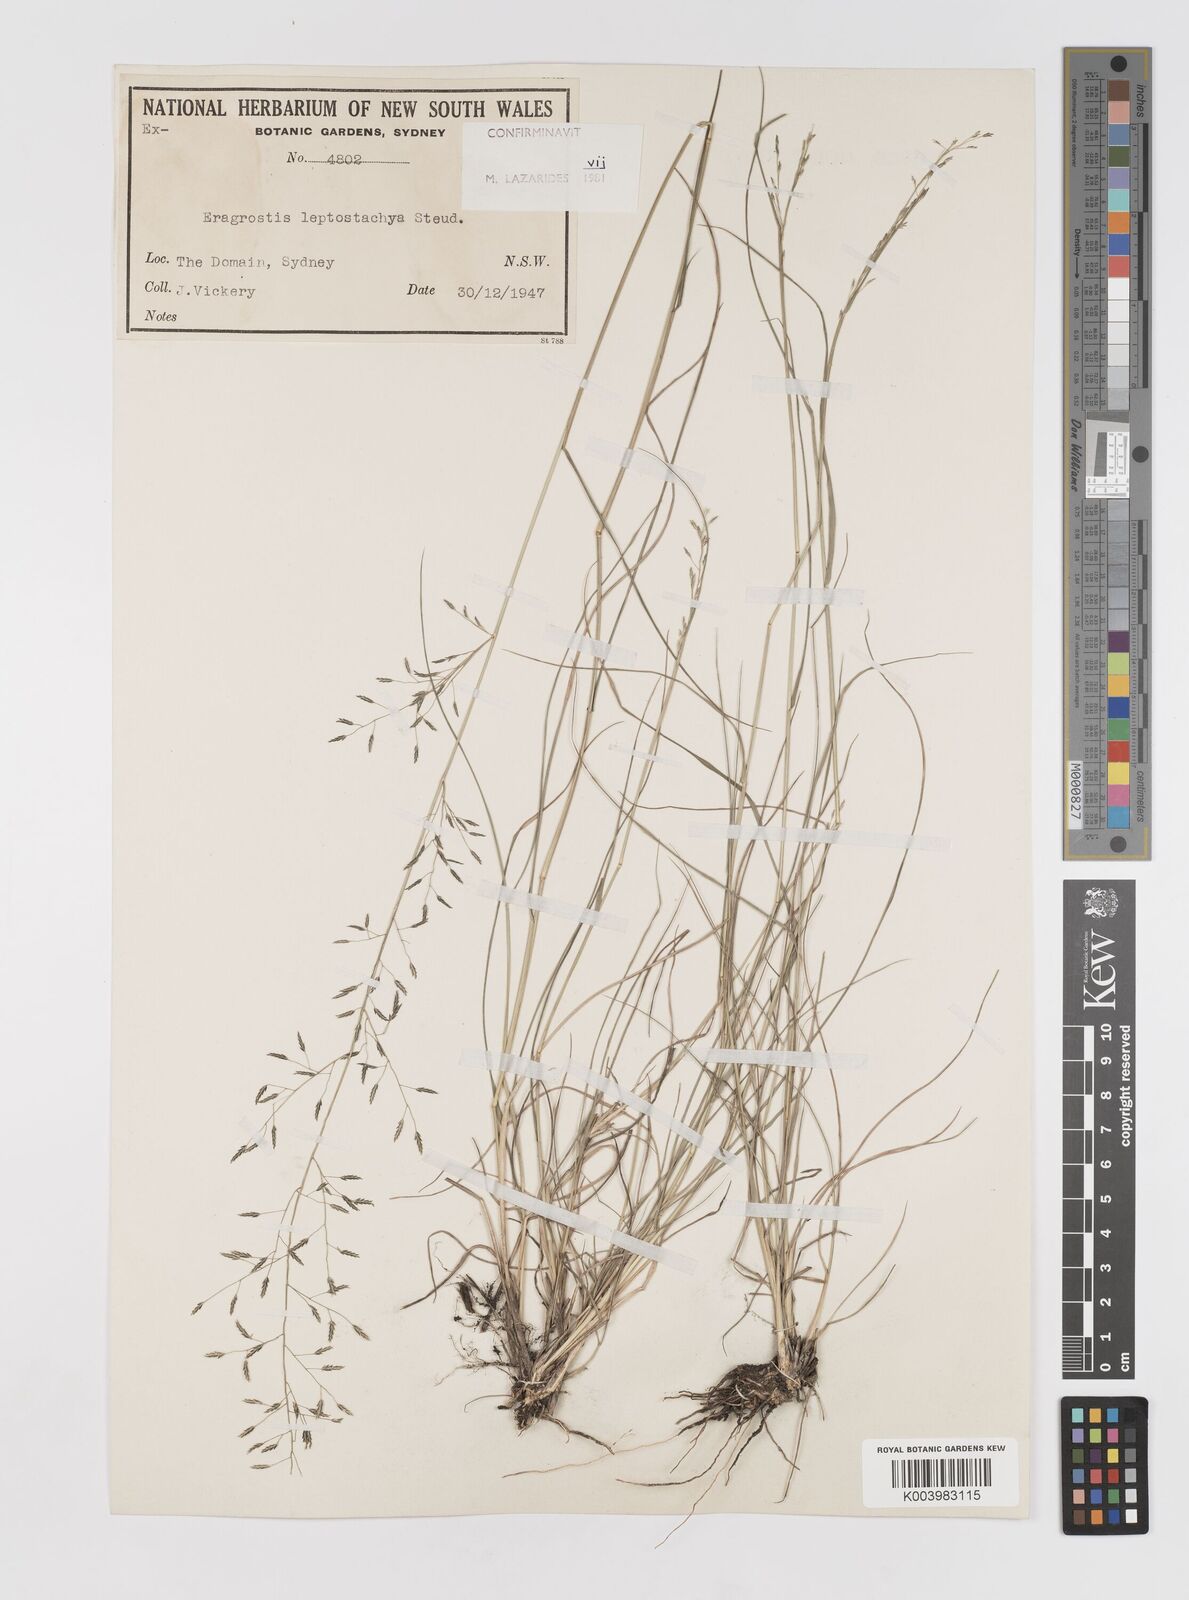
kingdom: Plantae
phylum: Tracheophyta
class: Liliopsida
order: Poales
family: Poaceae
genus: Eragrostis
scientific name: Eragrostis leptostachya
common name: Australian lovegrass
